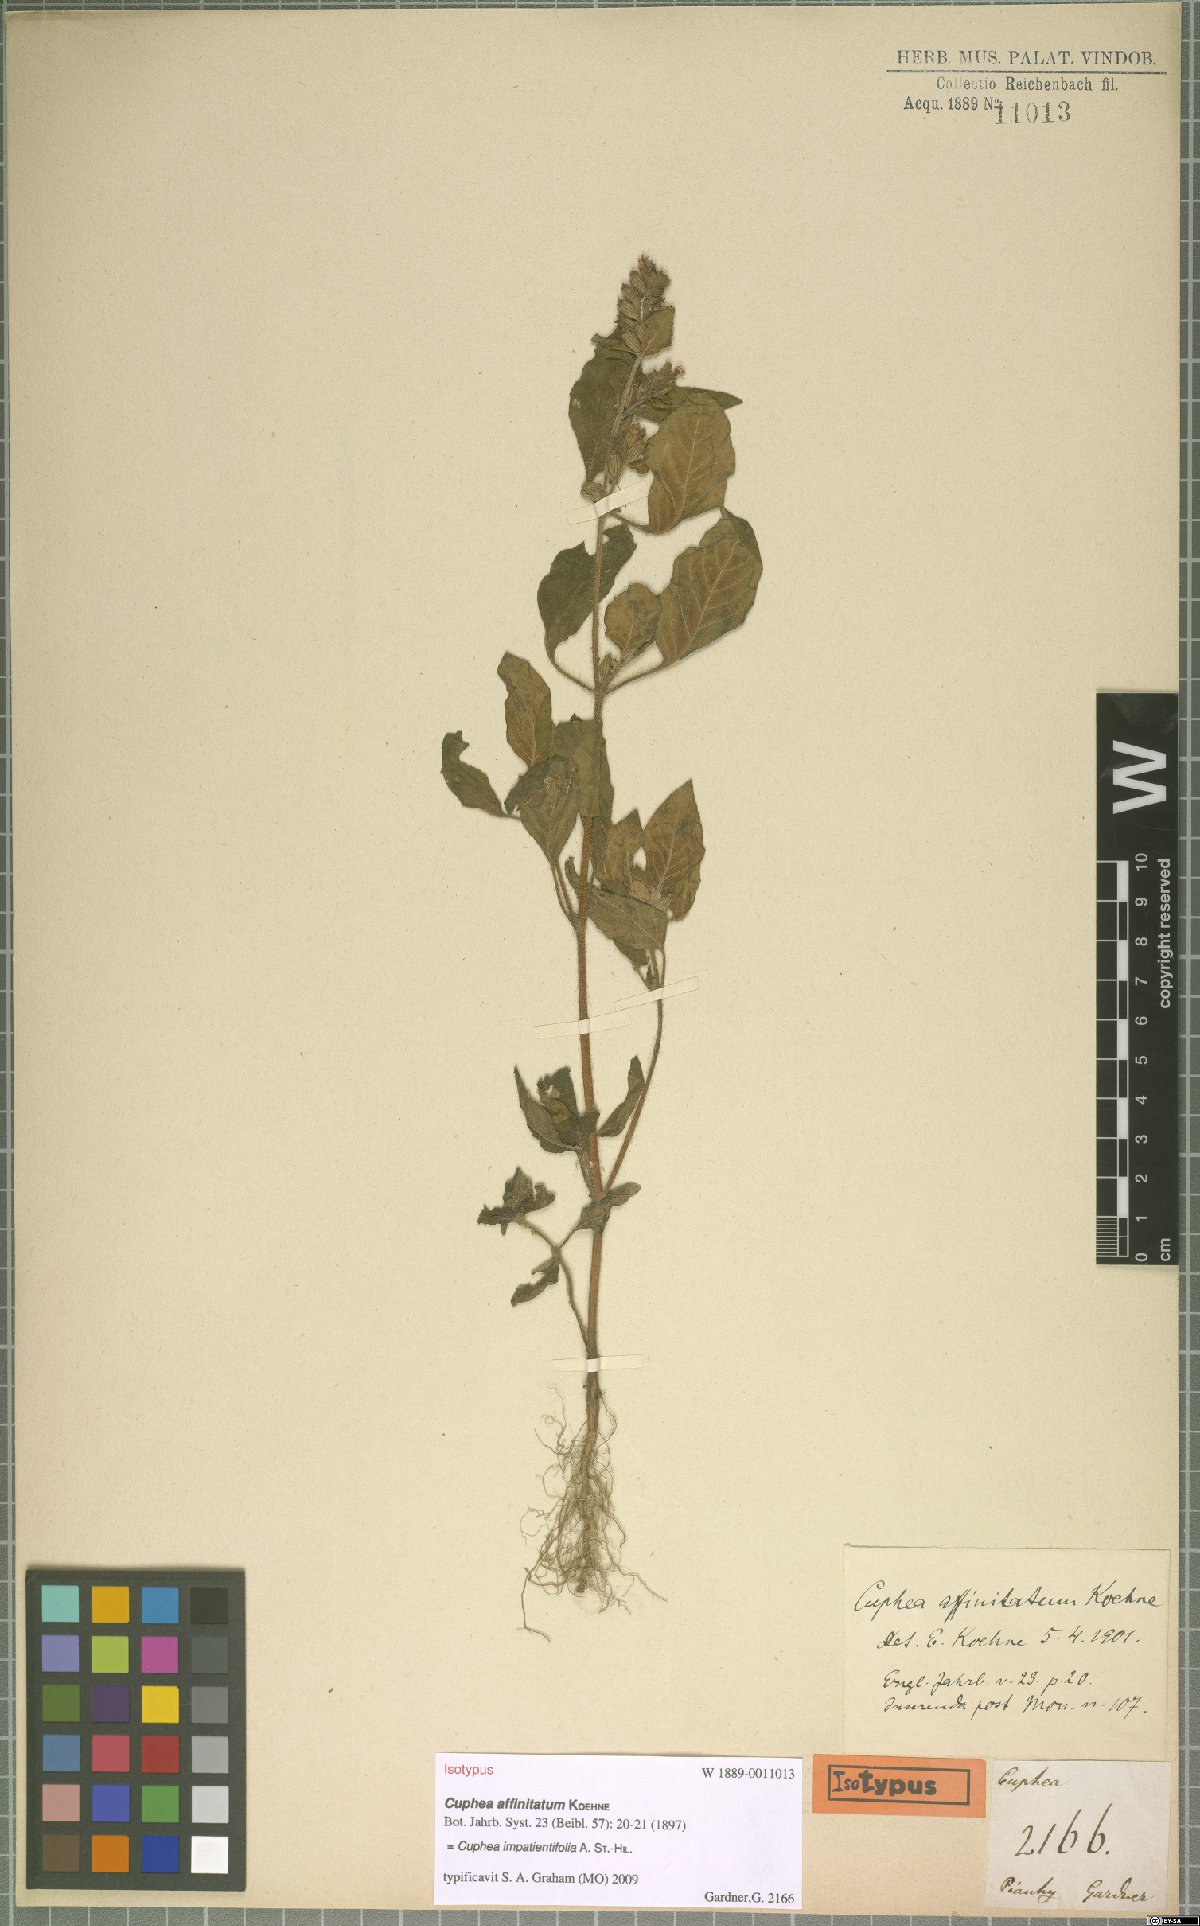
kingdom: Plantae
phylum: Tracheophyta
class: Magnoliopsida
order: Myrtales
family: Lythraceae
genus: Cuphea
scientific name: Cuphea impatientifolia
